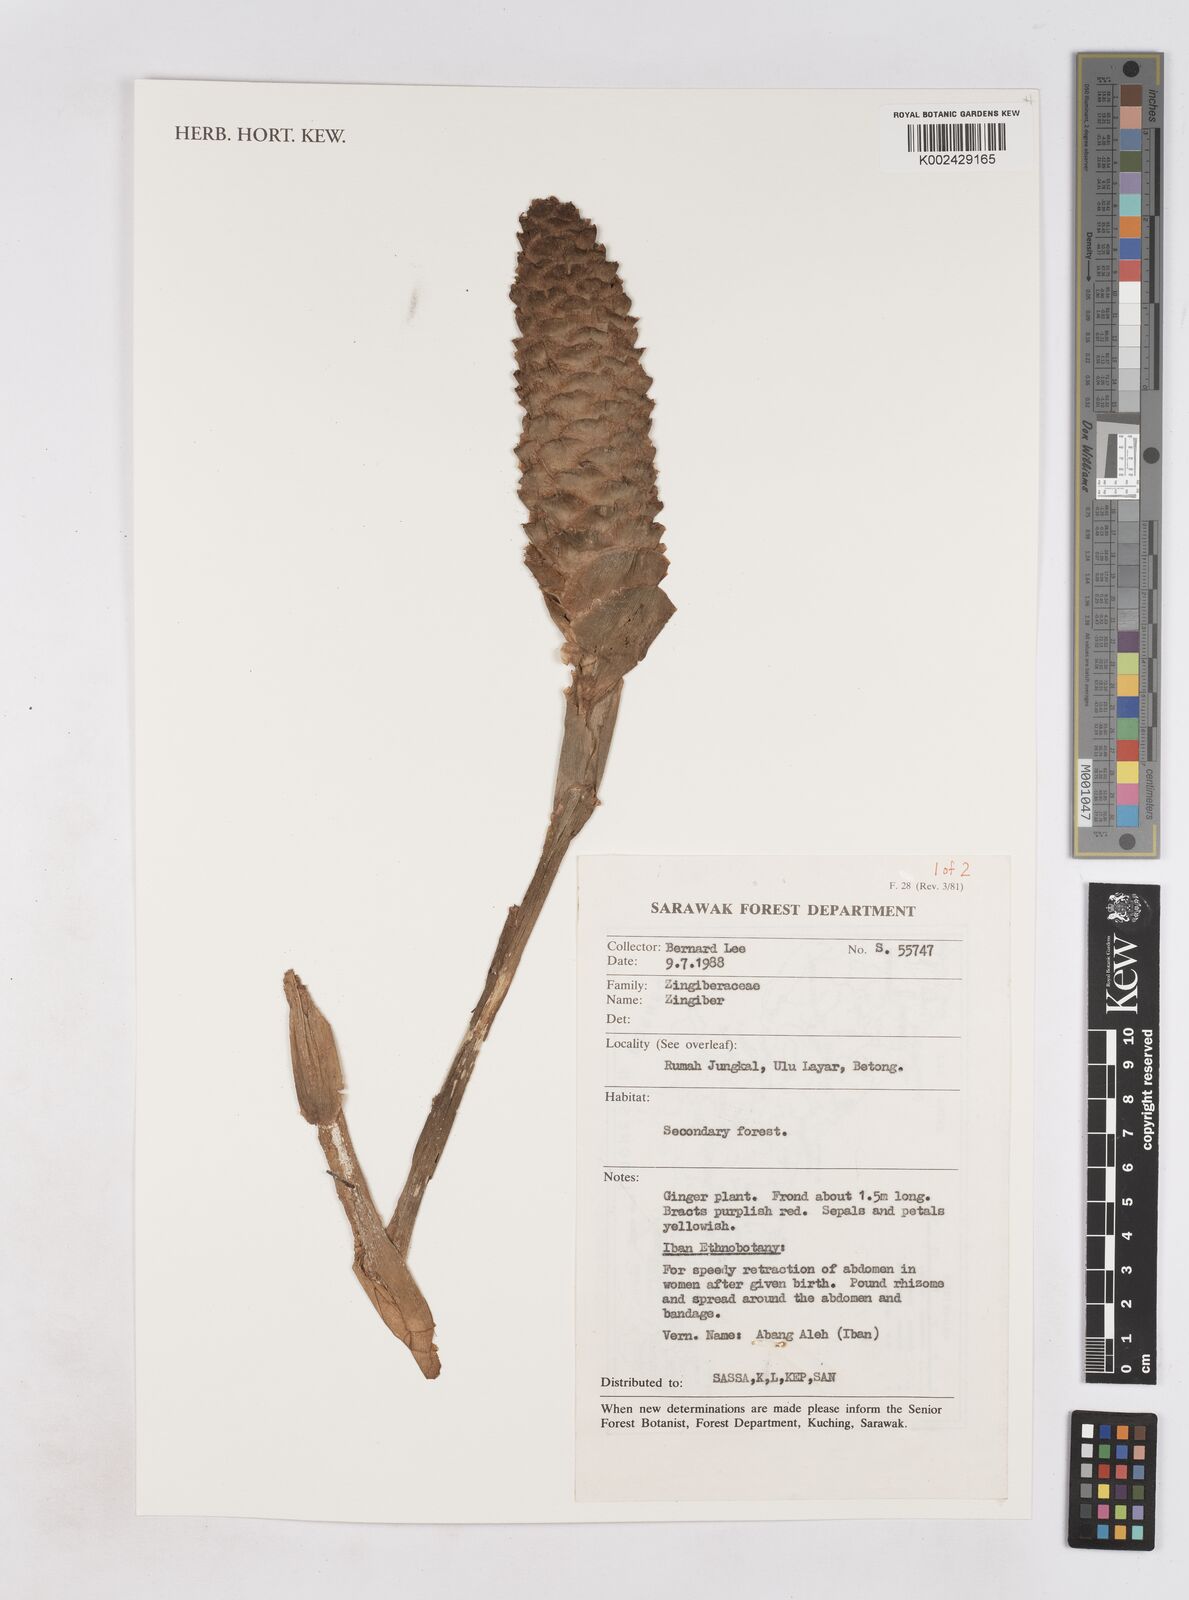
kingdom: Plantae
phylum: Tracheophyta
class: Liliopsida
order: Zingiberales
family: Zingiberaceae
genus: Zingiber
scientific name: Zingiber
